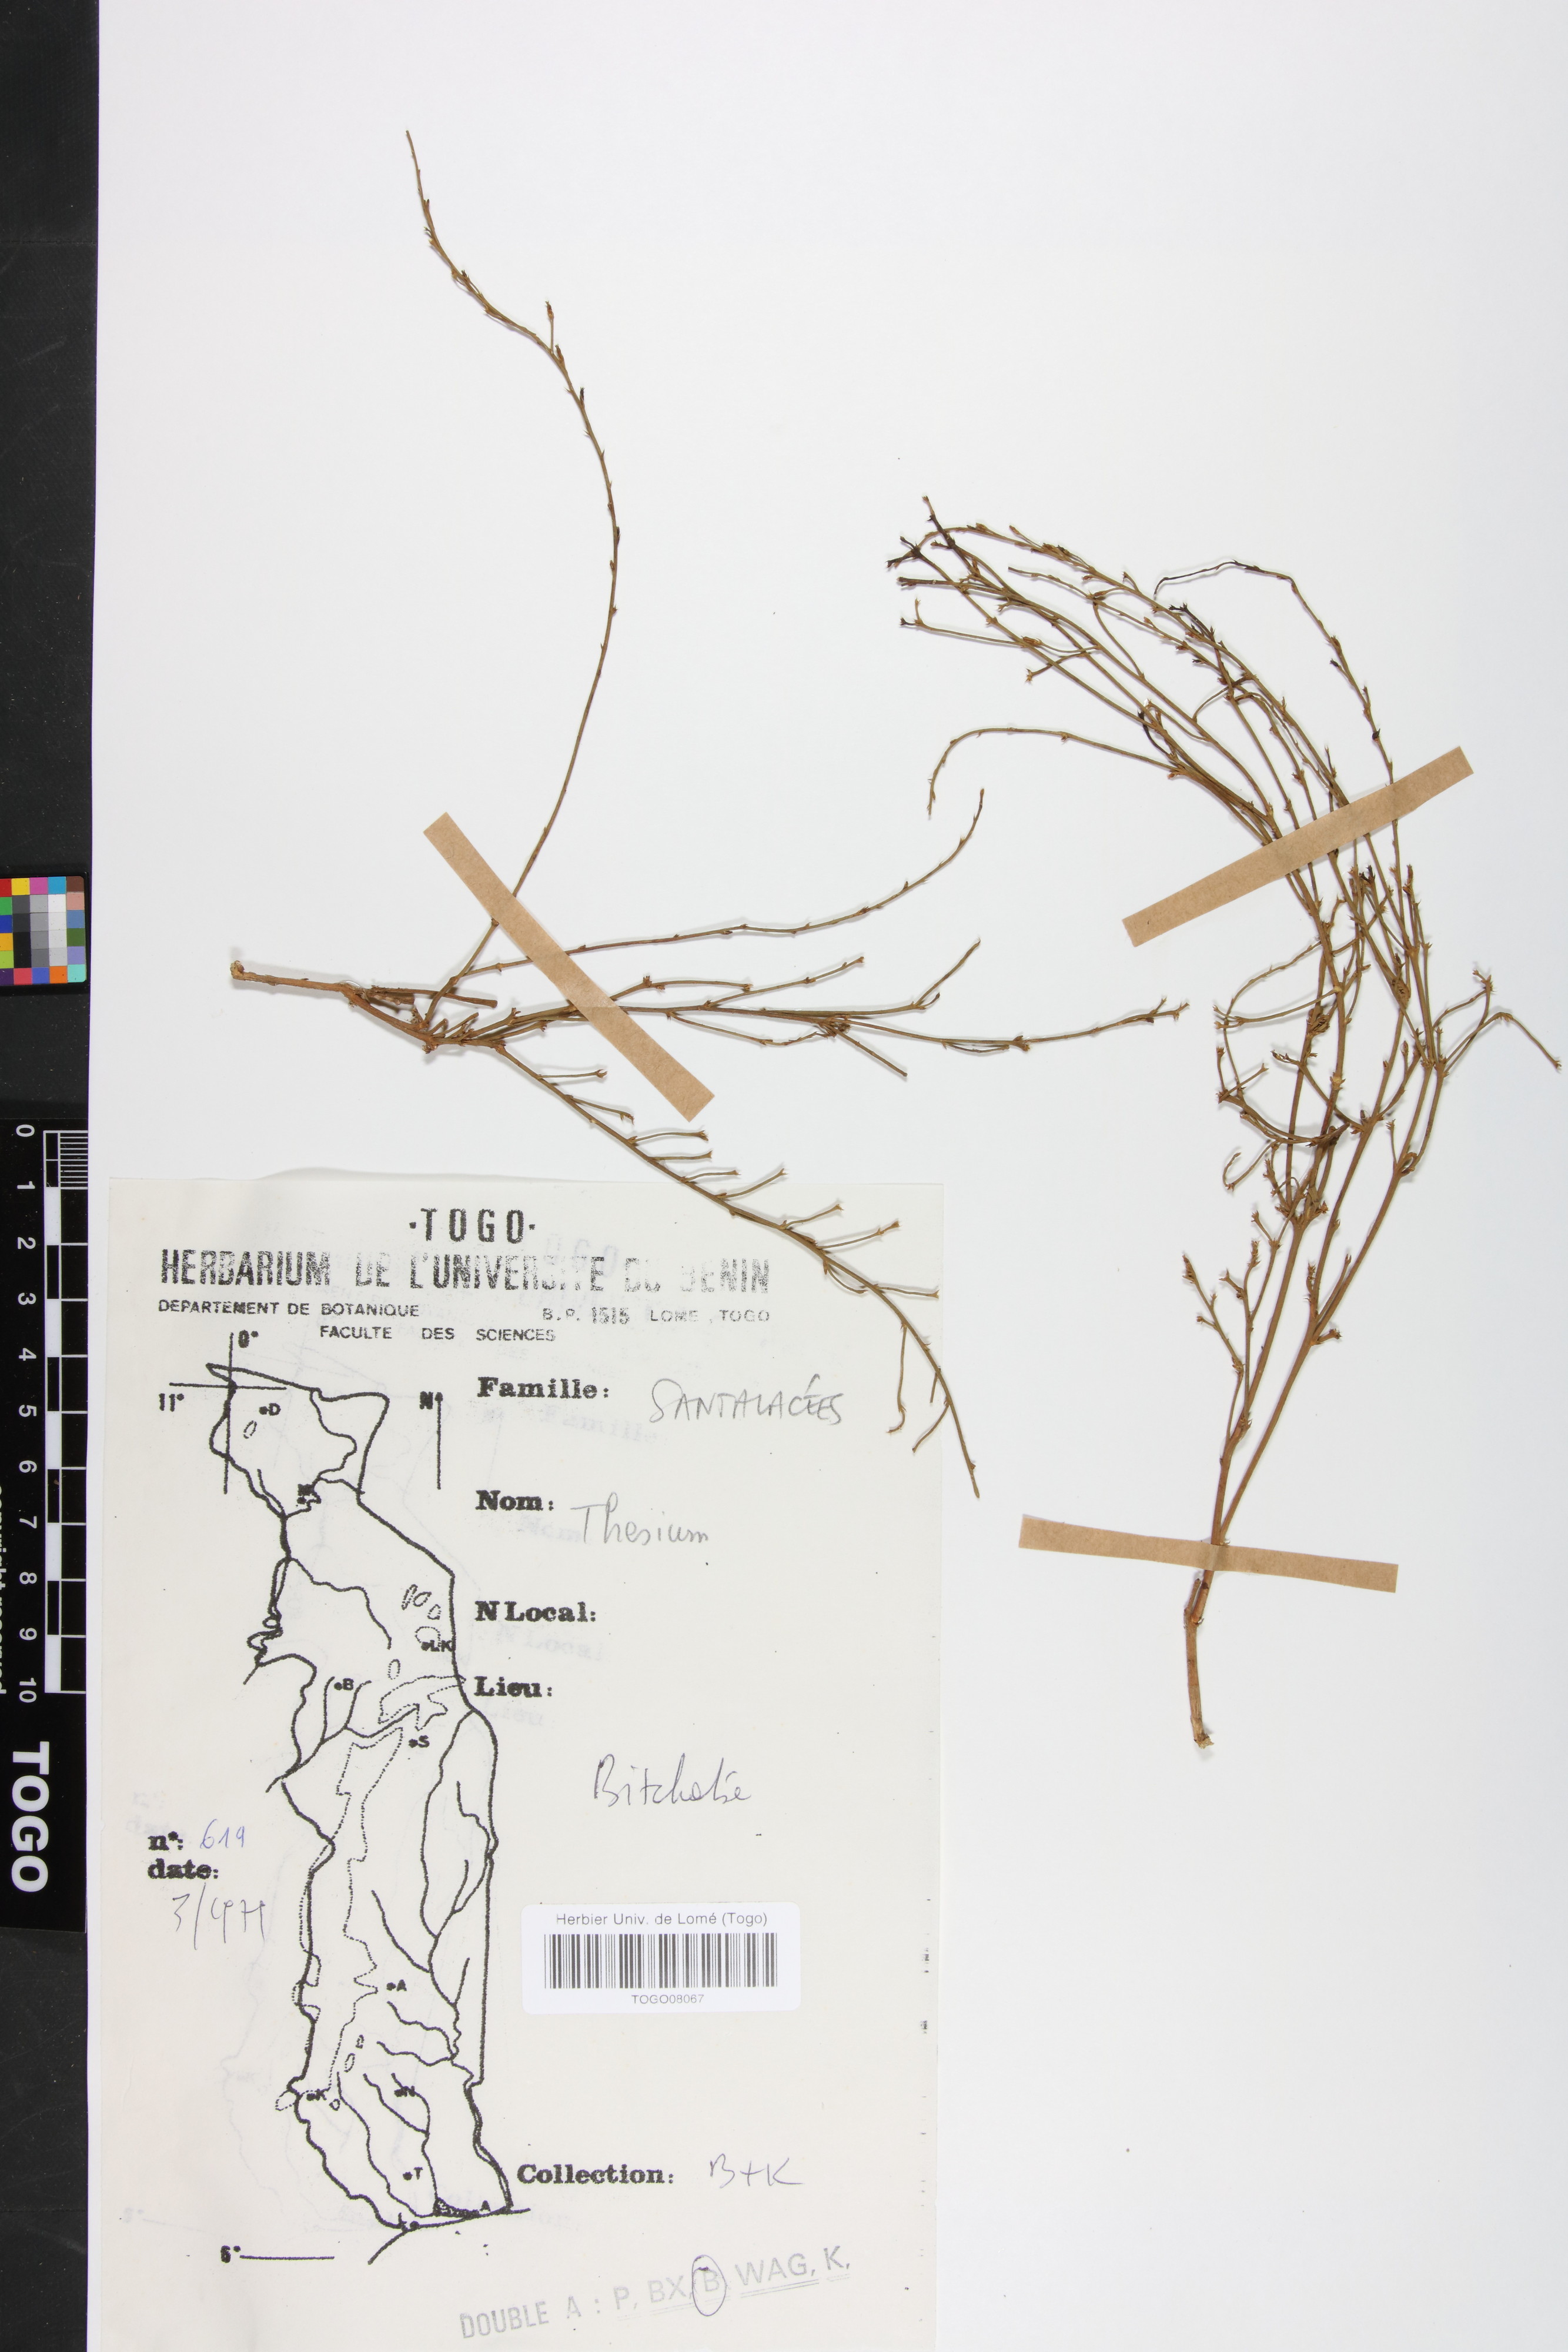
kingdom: Plantae
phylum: Tracheophyta
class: Magnoliopsida
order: Santalales
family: Thesiaceae
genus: Thesium
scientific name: Thesium viride
